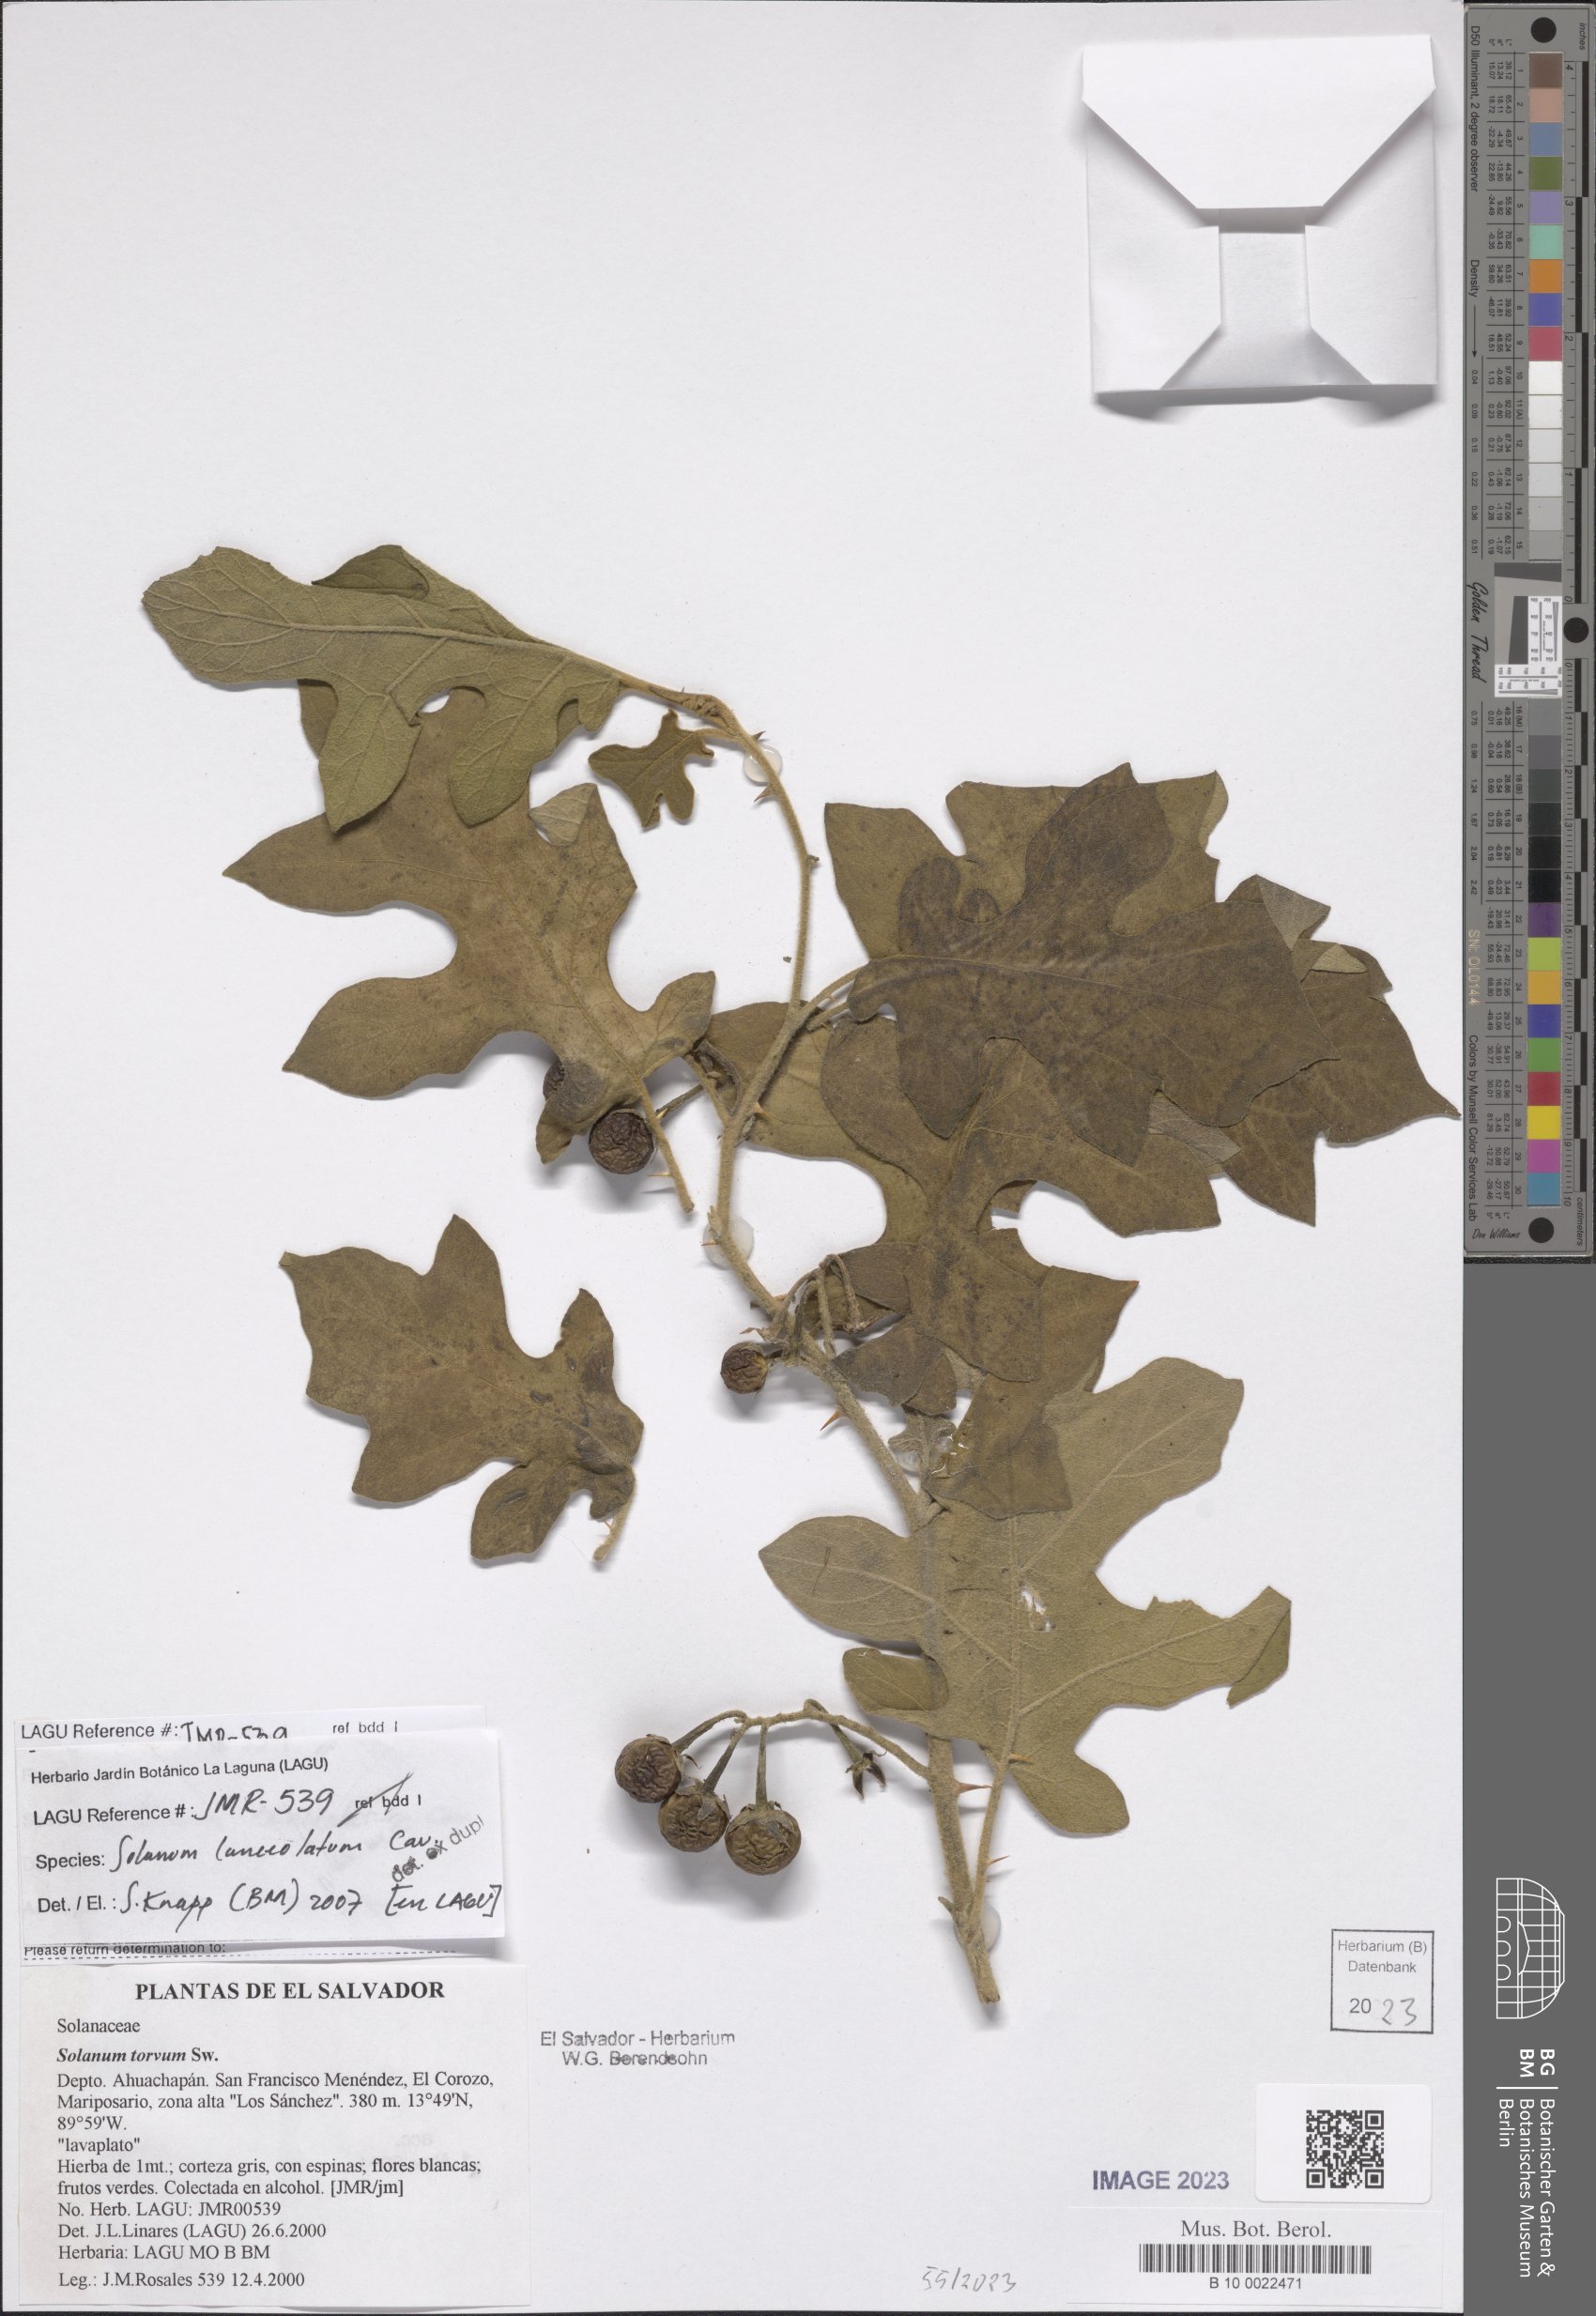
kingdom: Plantae
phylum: Tracheophyta
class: Magnoliopsida
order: Solanales
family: Solanaceae
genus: Solanum
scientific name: Solanum lanceolatum
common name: Orangeberry nightshade
